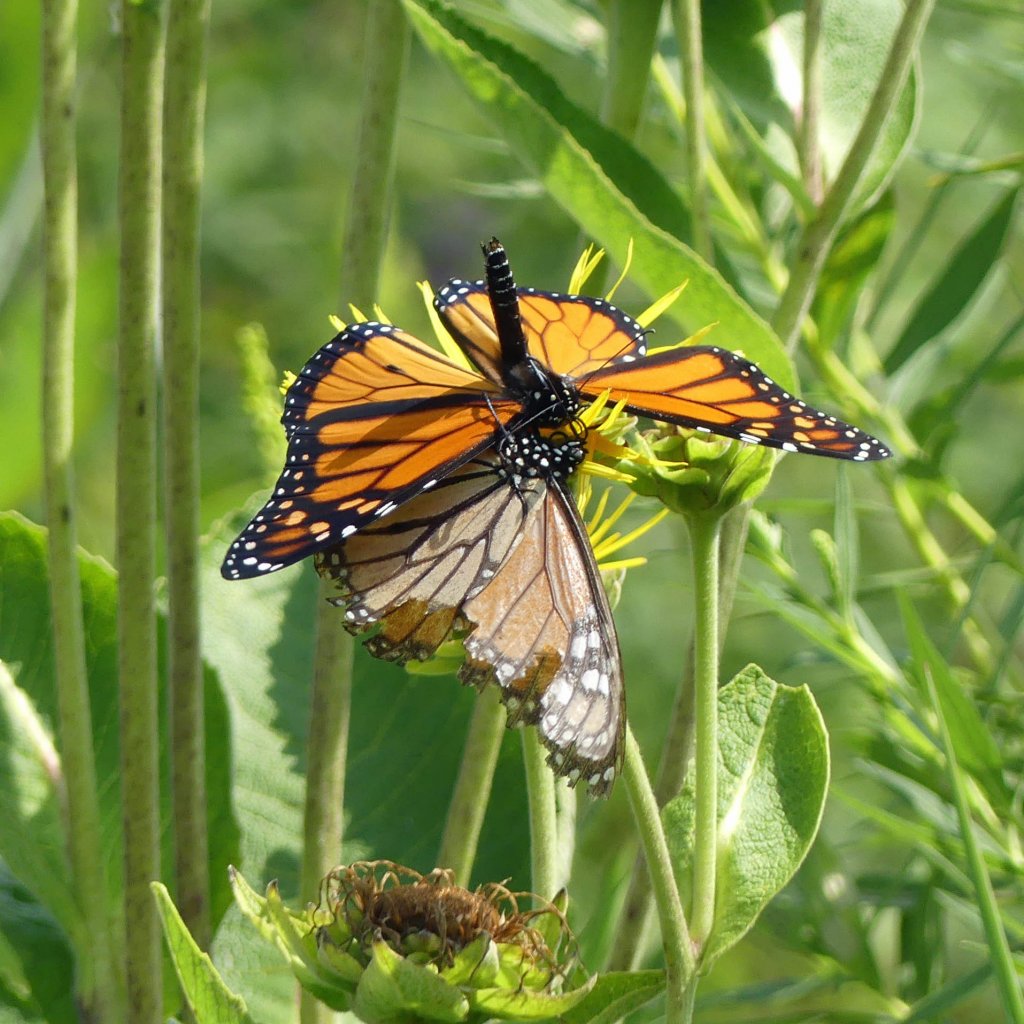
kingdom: Animalia
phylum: Arthropoda
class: Insecta
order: Lepidoptera
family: Nymphalidae
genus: Danaus
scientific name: Danaus plexippus
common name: Monarch
